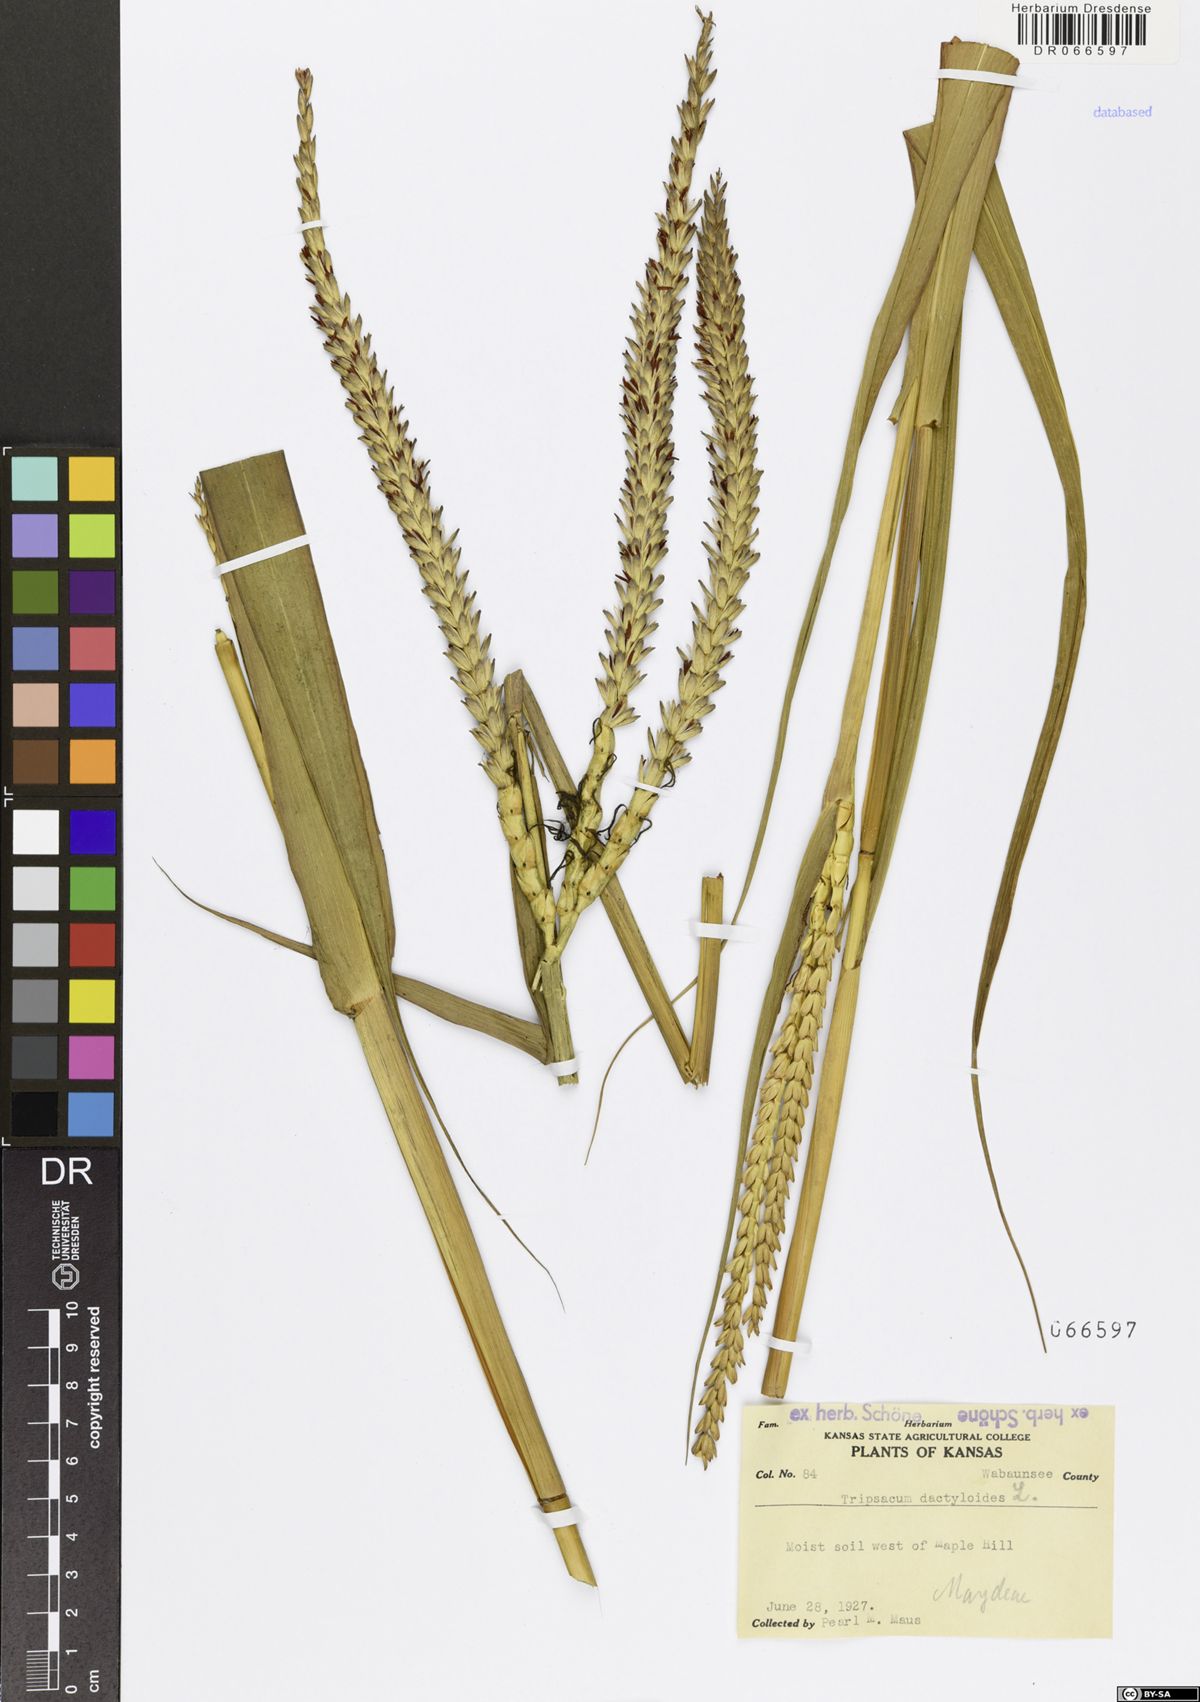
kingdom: Plantae
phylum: Tracheophyta
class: Liliopsida
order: Poales
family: Poaceae
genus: Tripsacum
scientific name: Tripsacum dactyloides
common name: Buffalo-grass
